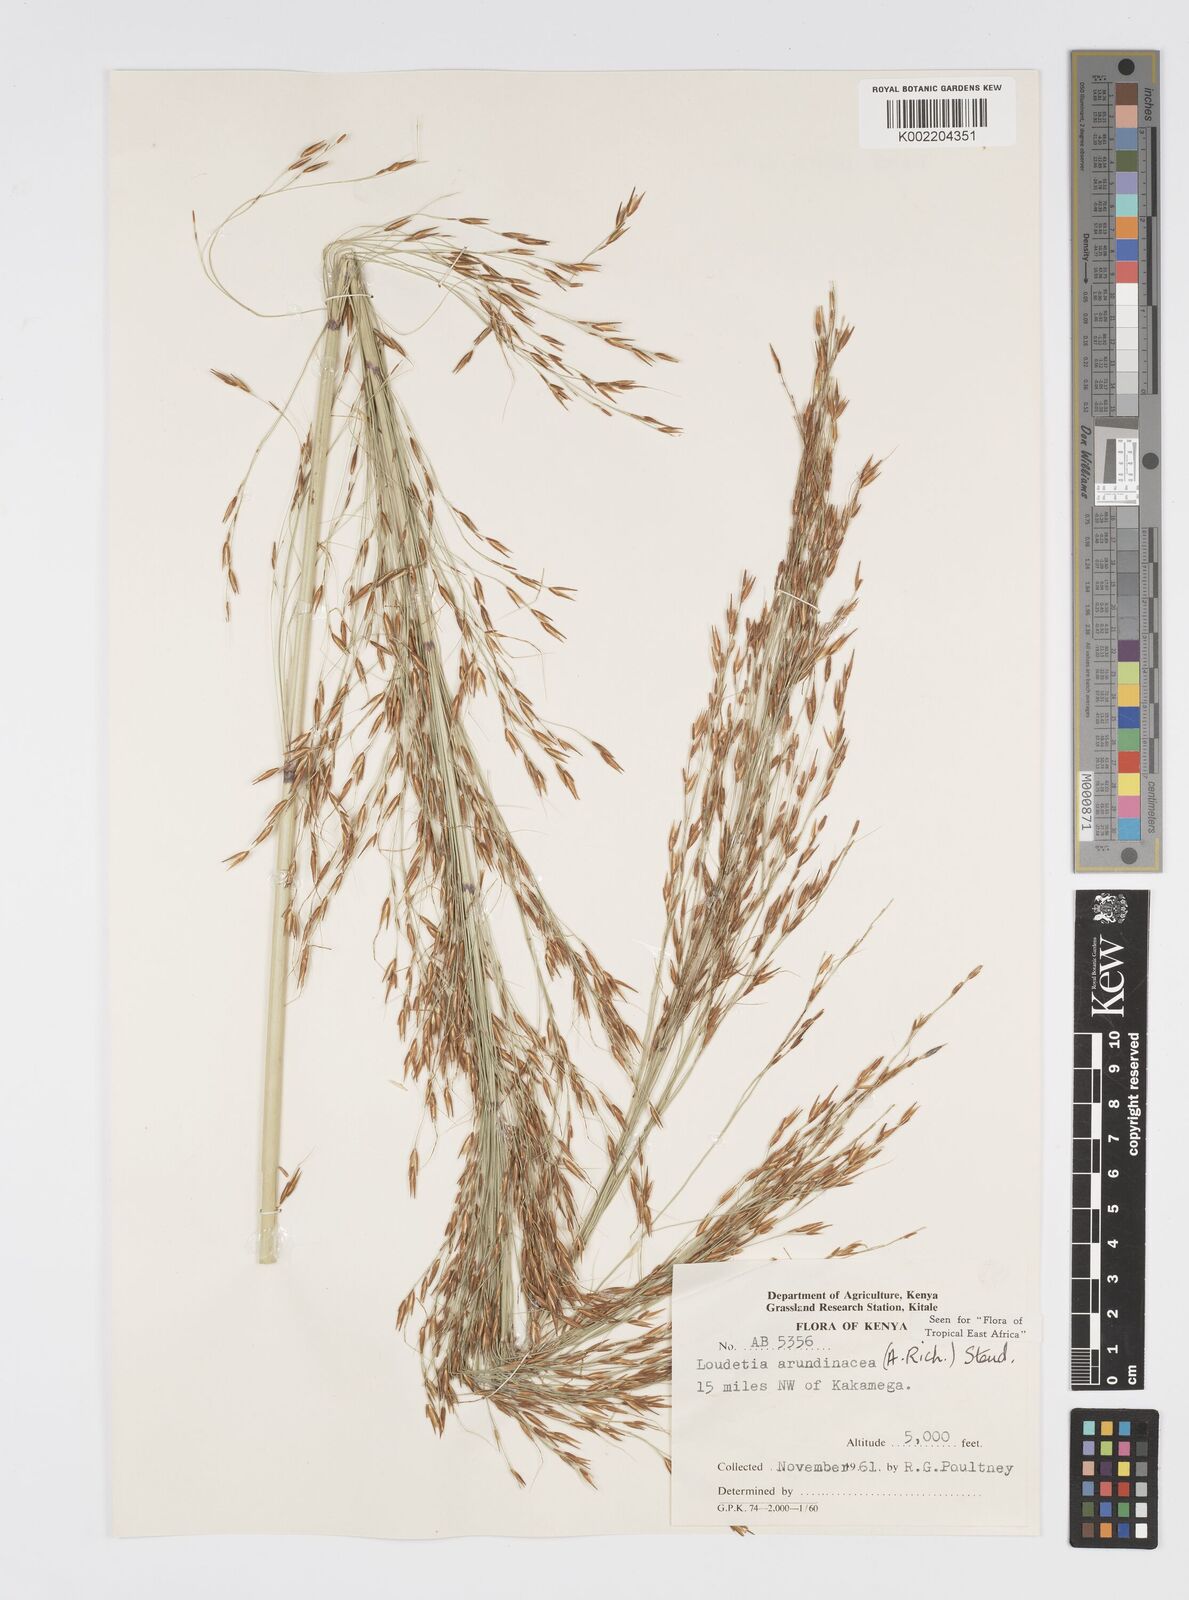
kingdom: Plantae
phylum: Tracheophyta
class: Liliopsida
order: Poales
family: Poaceae
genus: Loudetia
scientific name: Loudetia arundinacea
